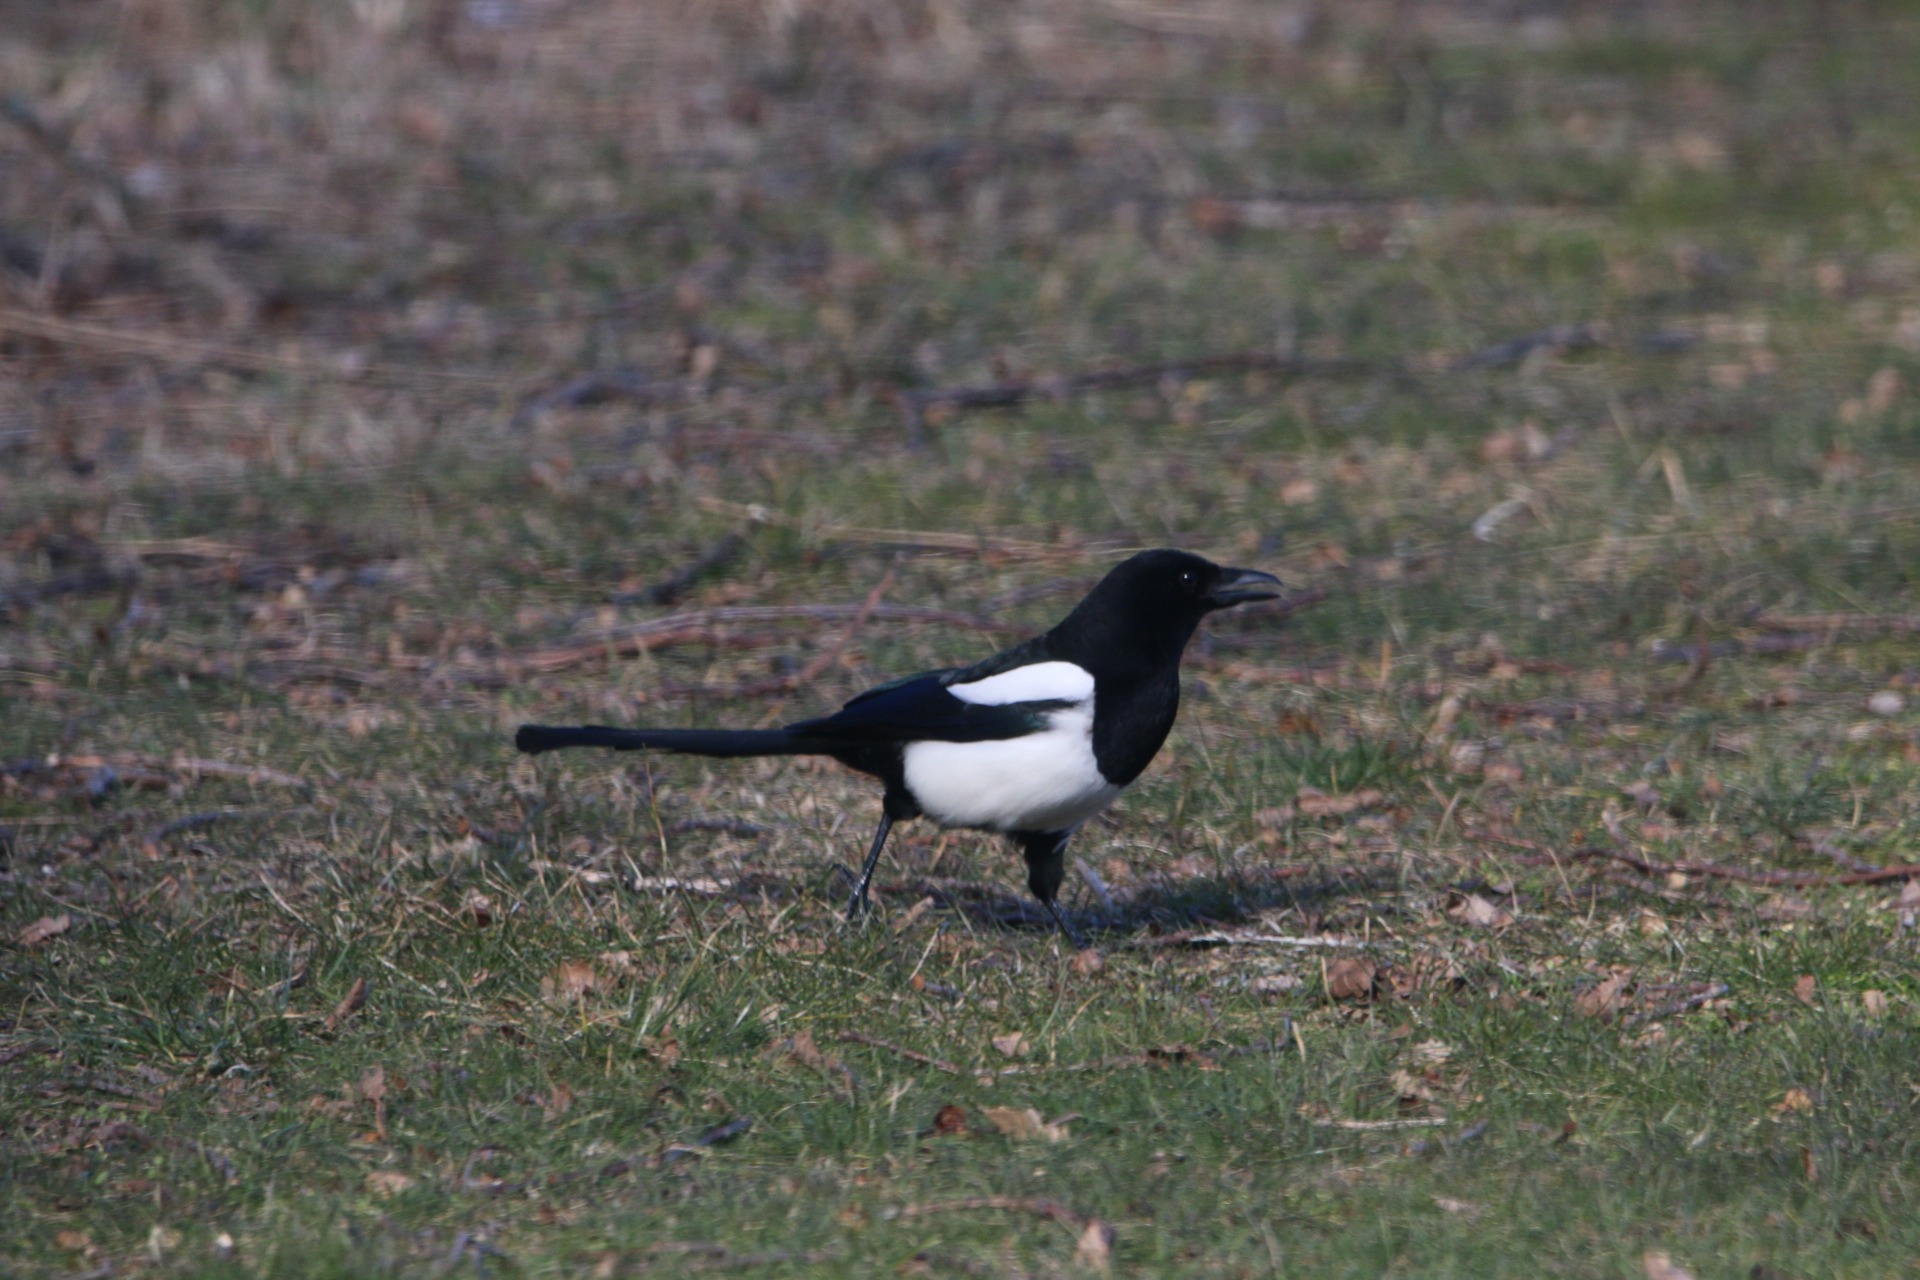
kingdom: Animalia
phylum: Chordata
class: Aves
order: Passeriformes
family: Corvidae
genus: Pica
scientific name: Pica pica
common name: Husskade
